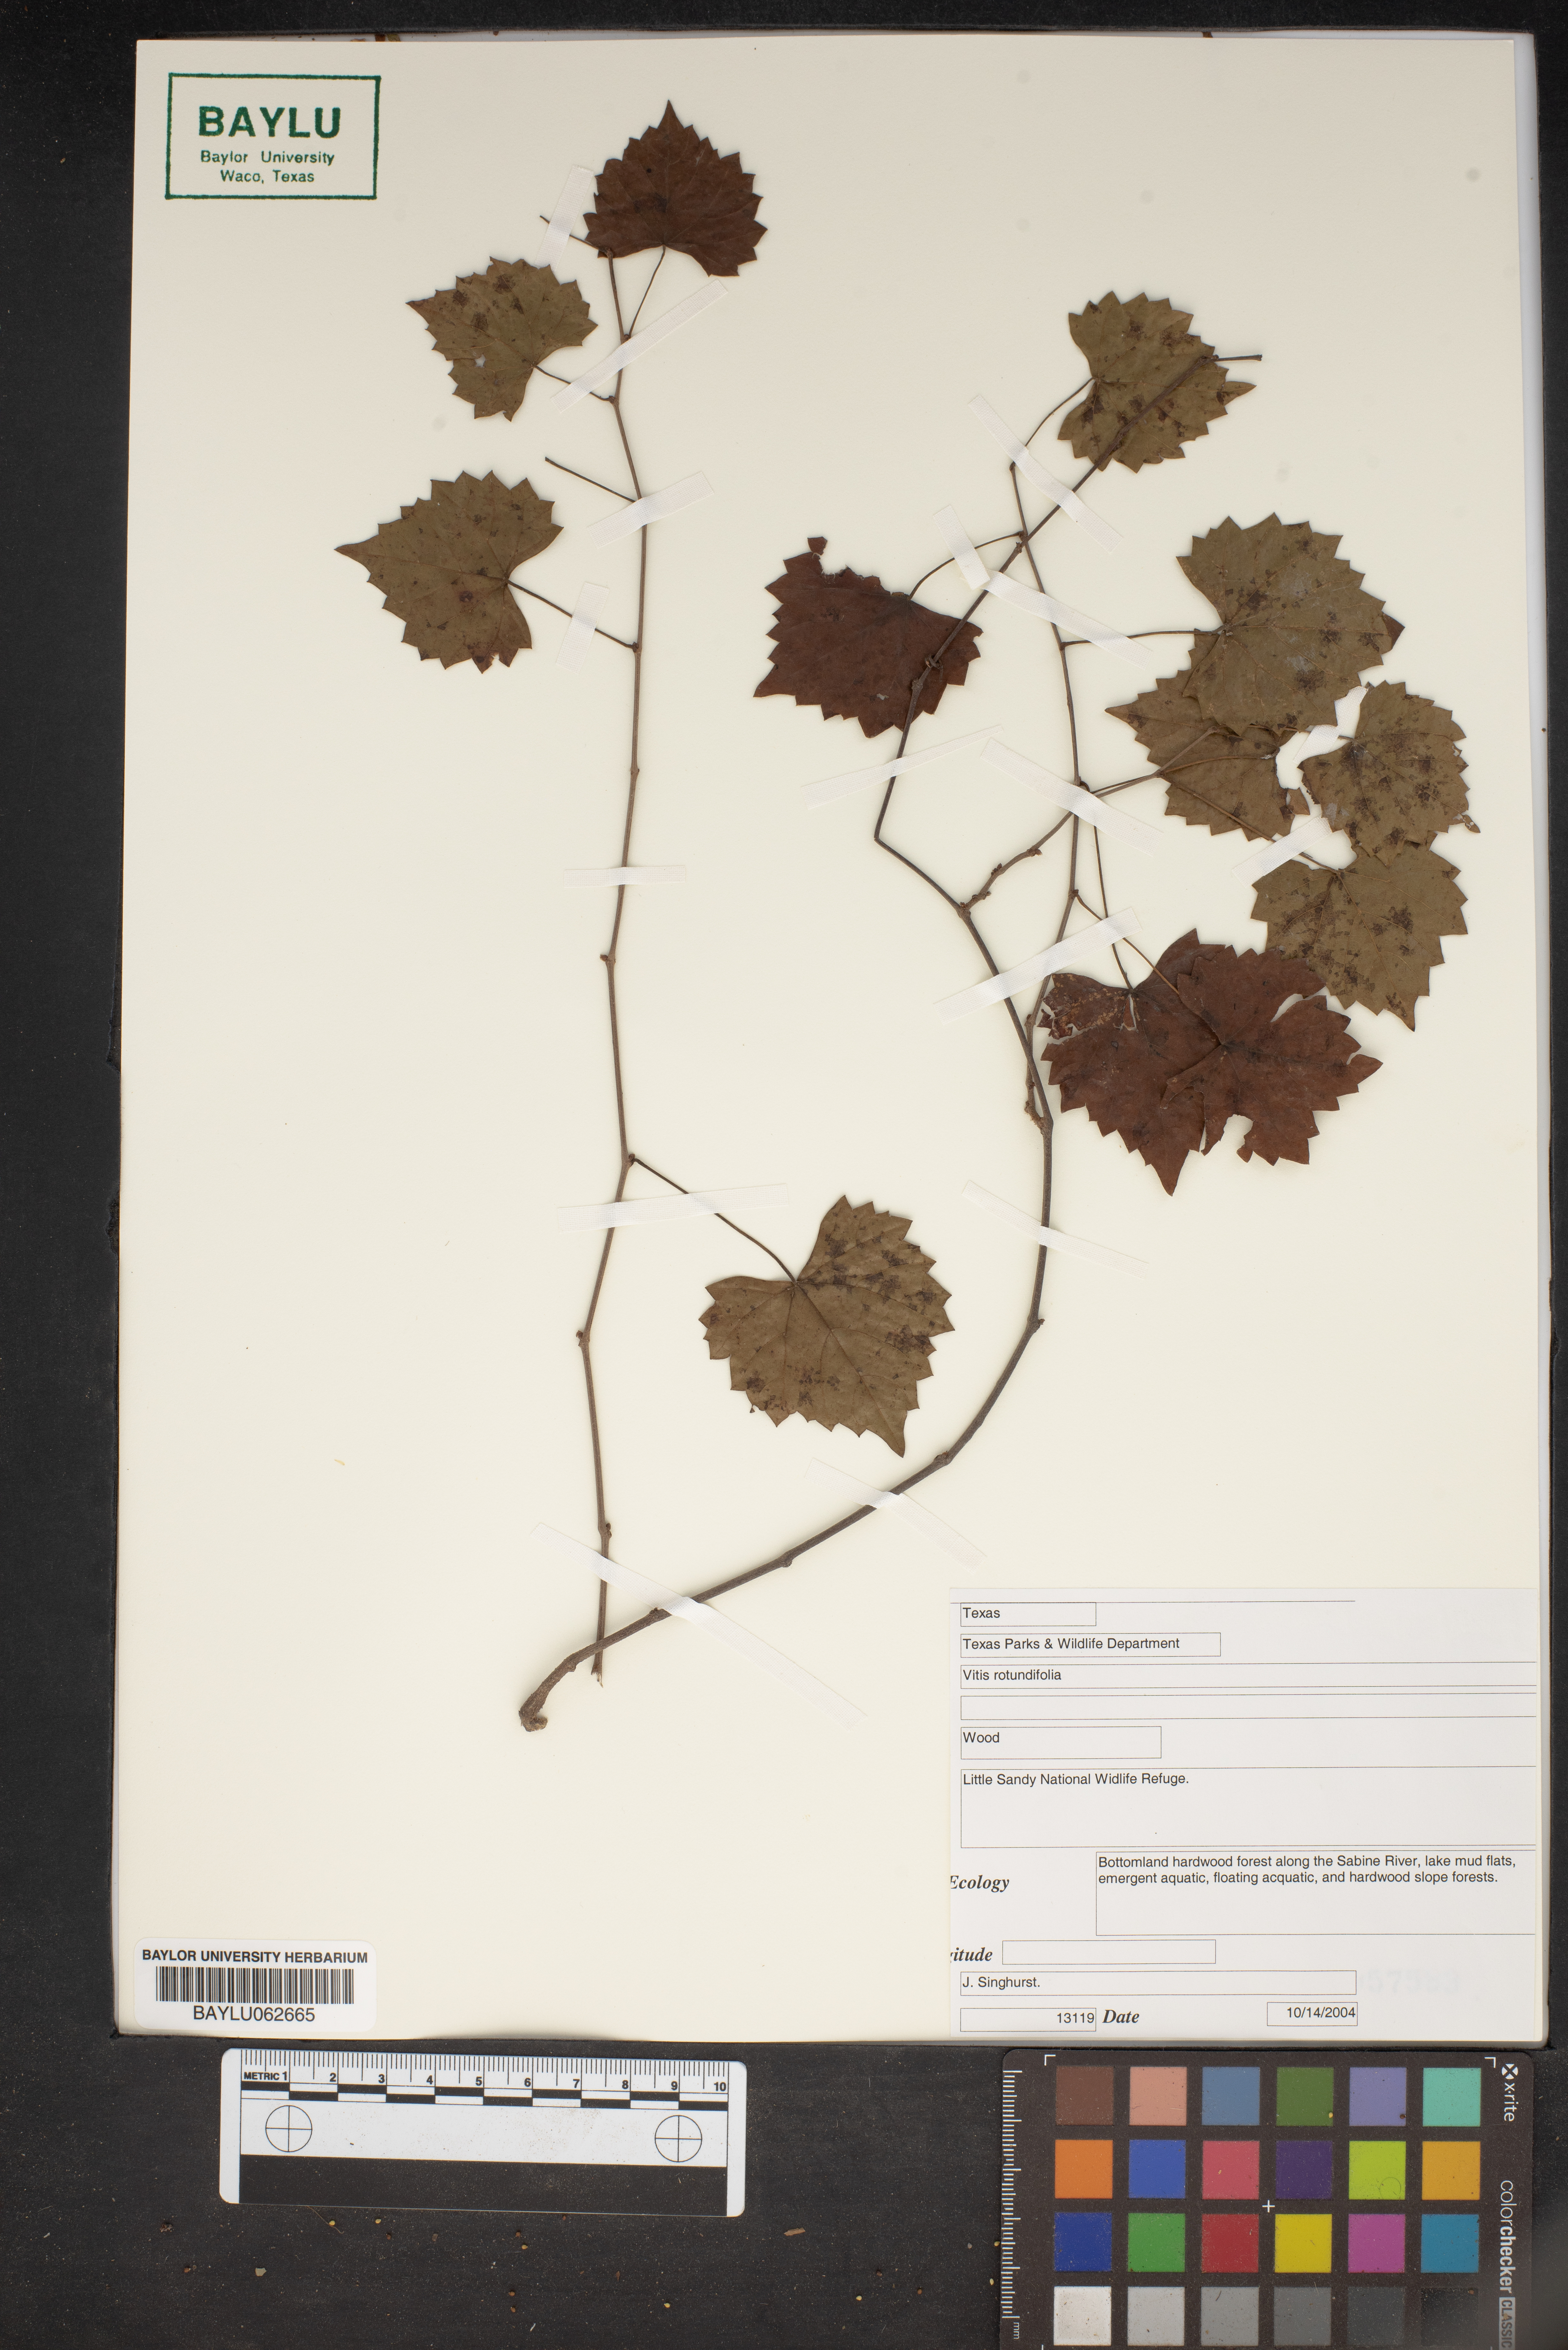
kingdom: Plantae
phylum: Tracheophyta
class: Magnoliopsida
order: Vitales
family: Vitaceae
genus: Vitis
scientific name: Vitis rotundifolia
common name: Muscadine grape
